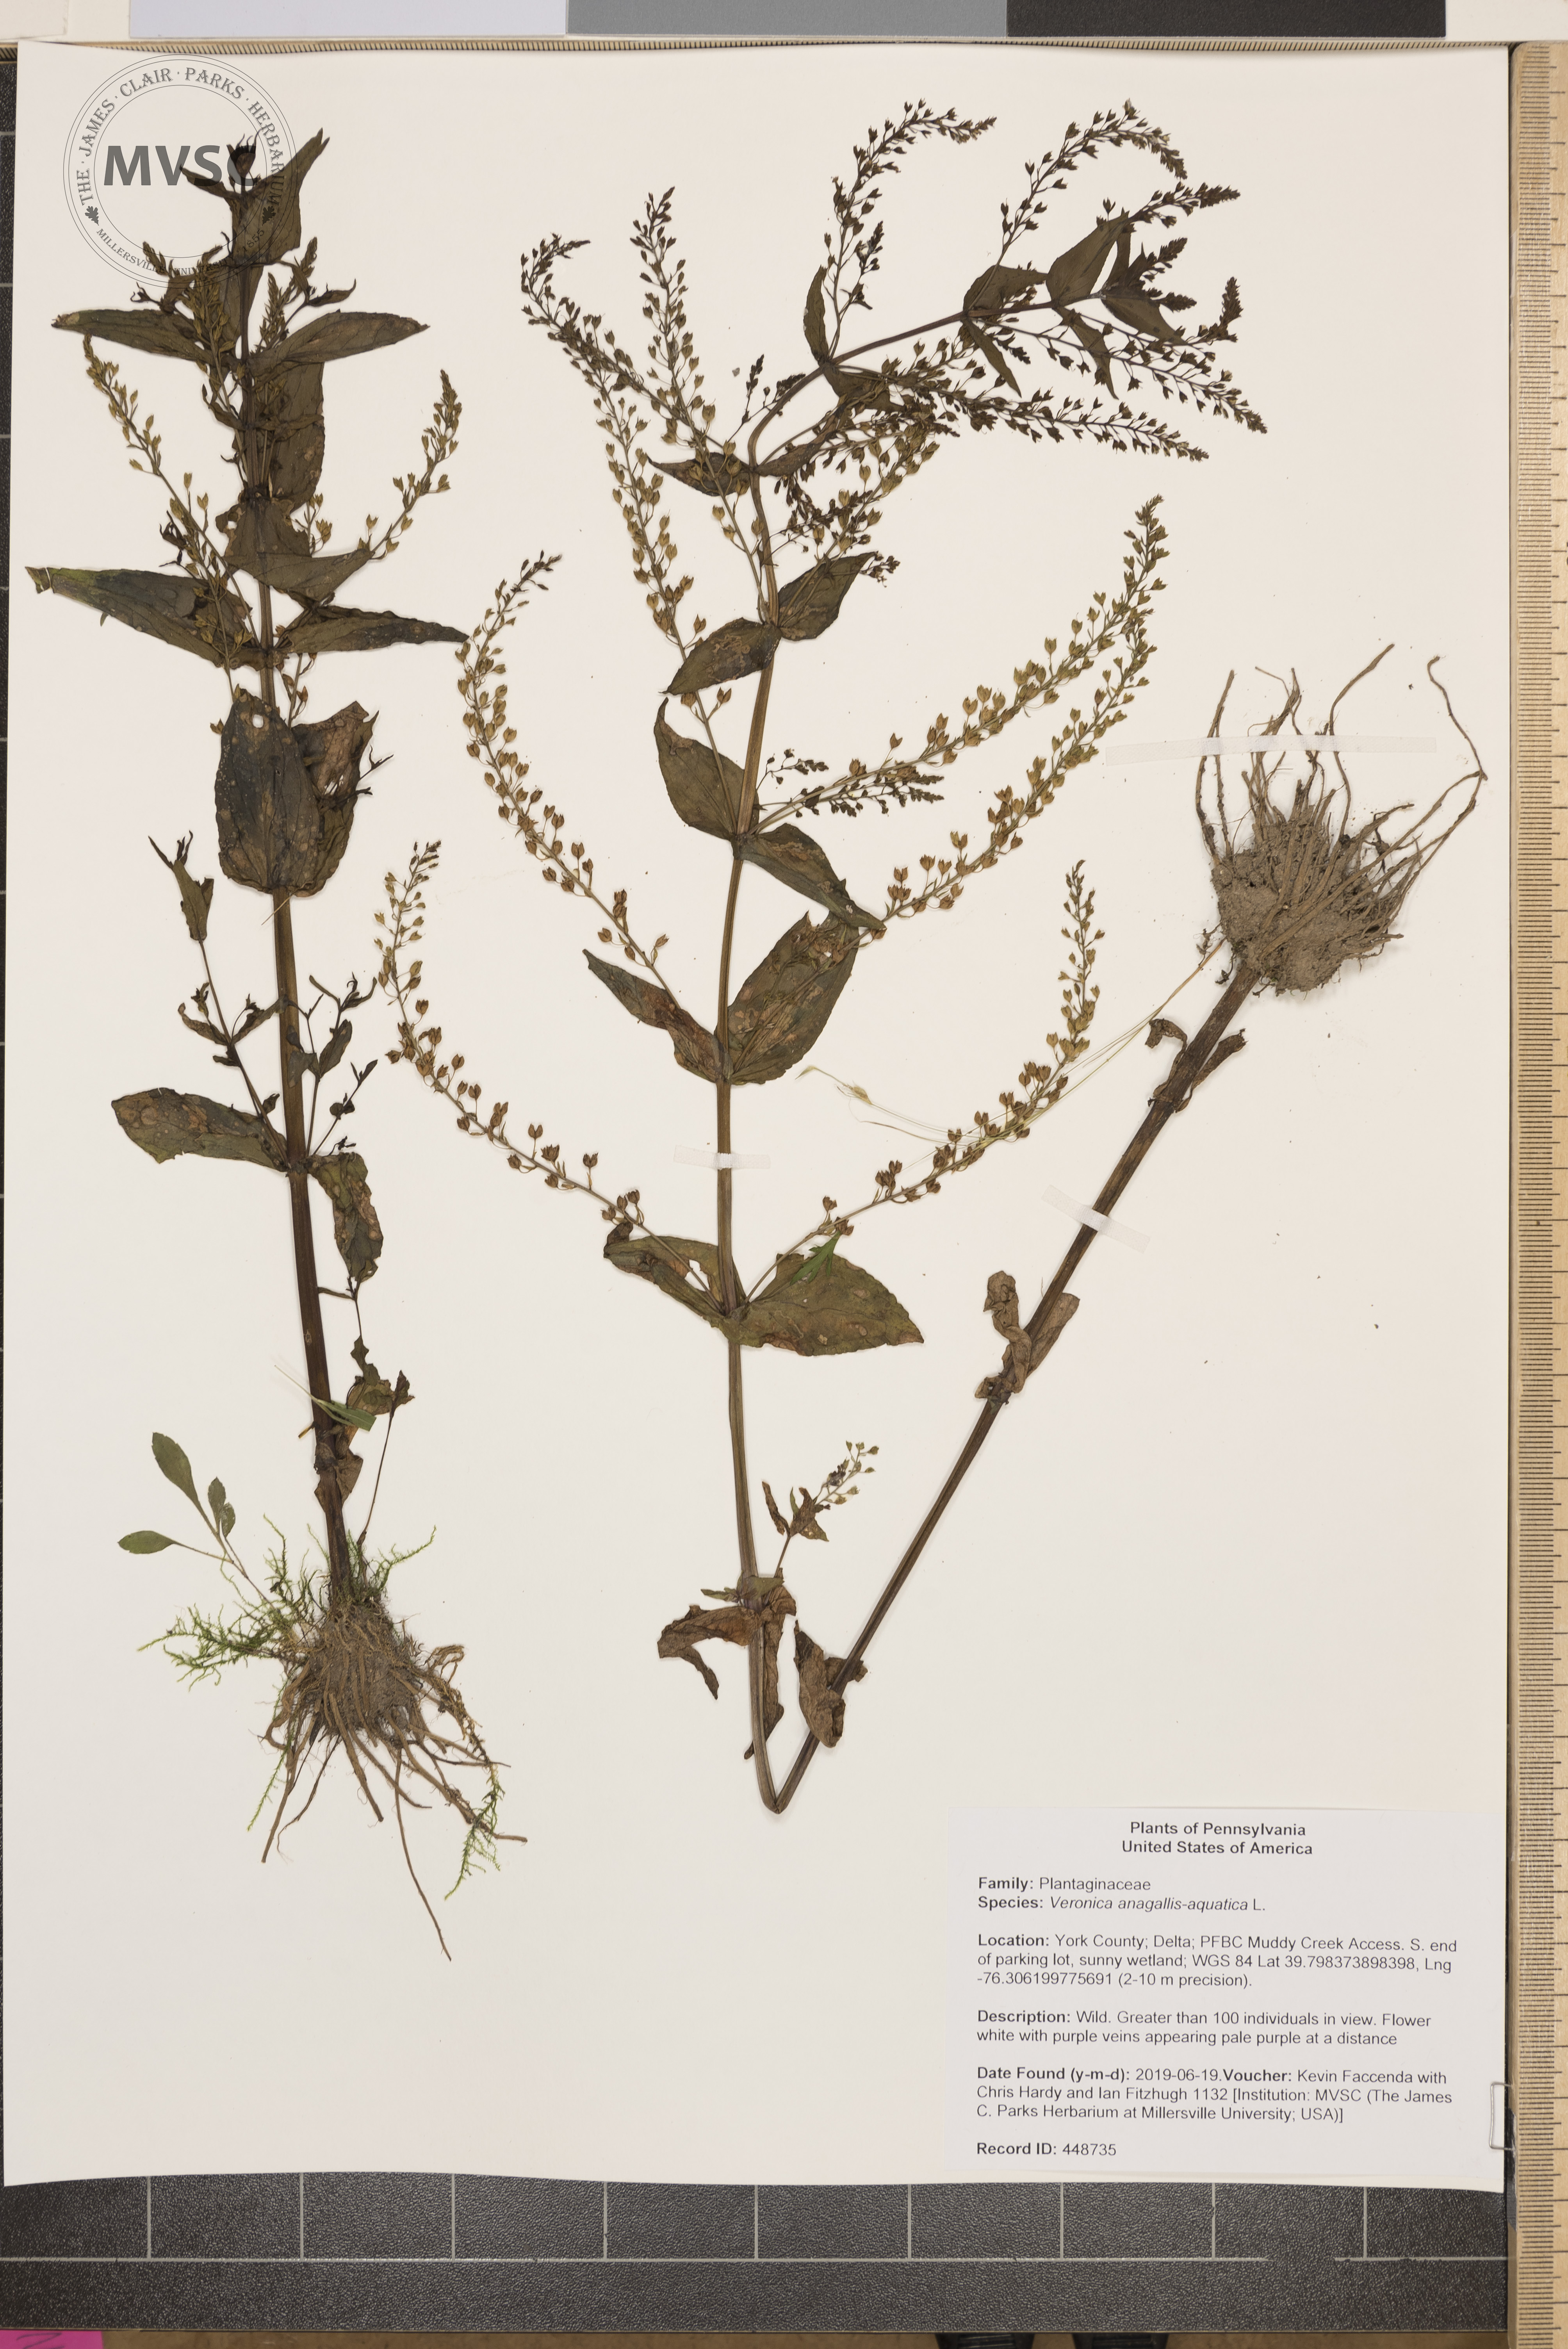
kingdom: Plantae
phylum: Tracheophyta
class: Magnoliopsida
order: Lamiales
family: Plantaginaceae
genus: Veronica
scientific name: Veronica anagallis-aquatica
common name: Water speedwell
